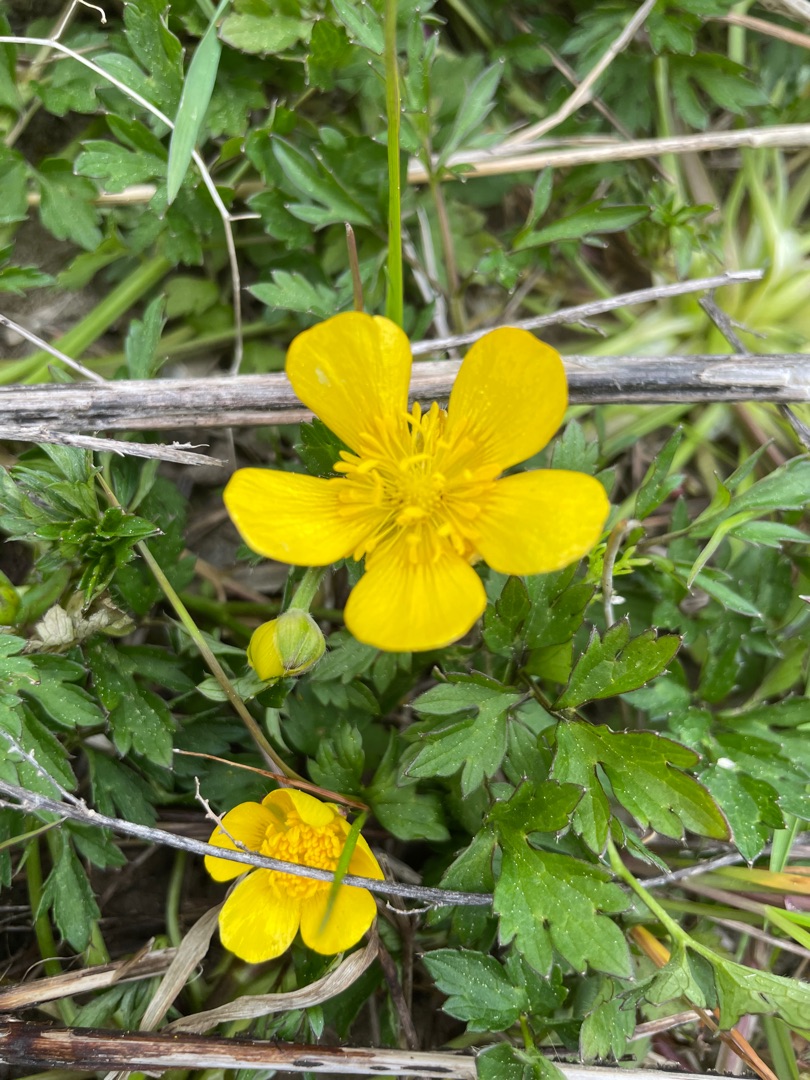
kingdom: Plantae
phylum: Tracheophyta
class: Magnoliopsida
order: Ranunculales
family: Ranunculaceae
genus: Ranunculus
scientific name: Ranunculus repens
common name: Lav ranunkel
